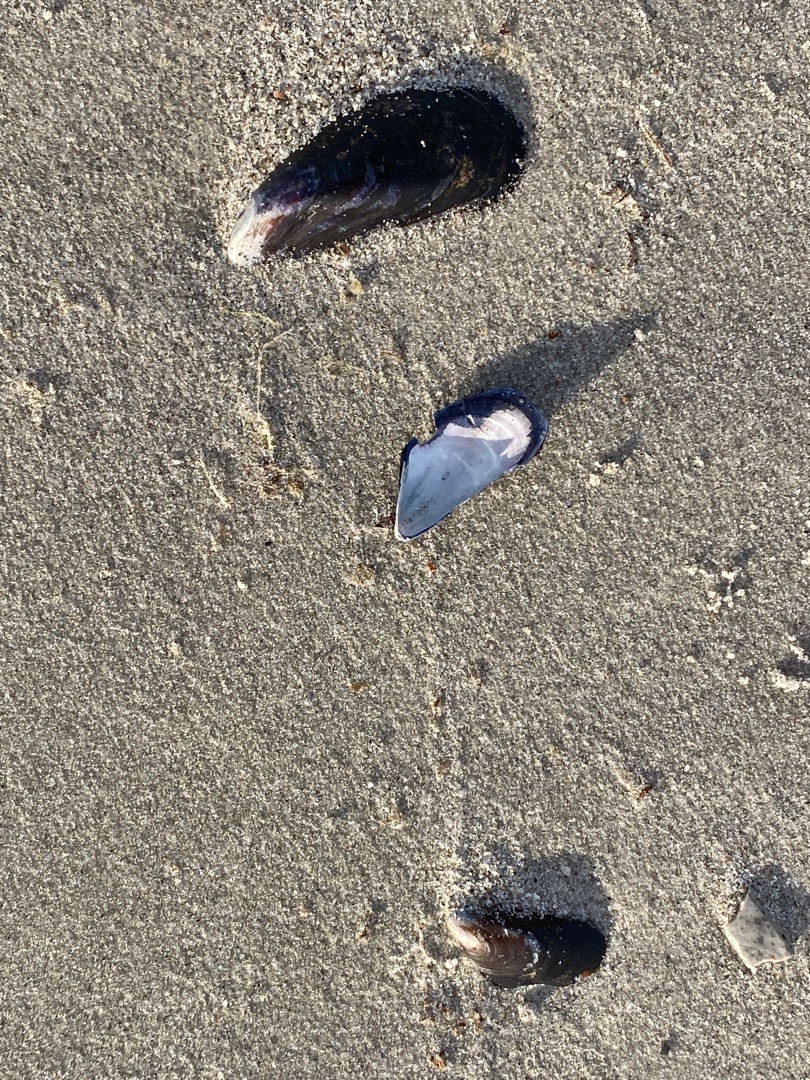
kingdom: Animalia
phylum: Mollusca
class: Bivalvia
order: Mytilida
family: Mytilidae
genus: Mytilus
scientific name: Mytilus edulis
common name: Blåmusling
